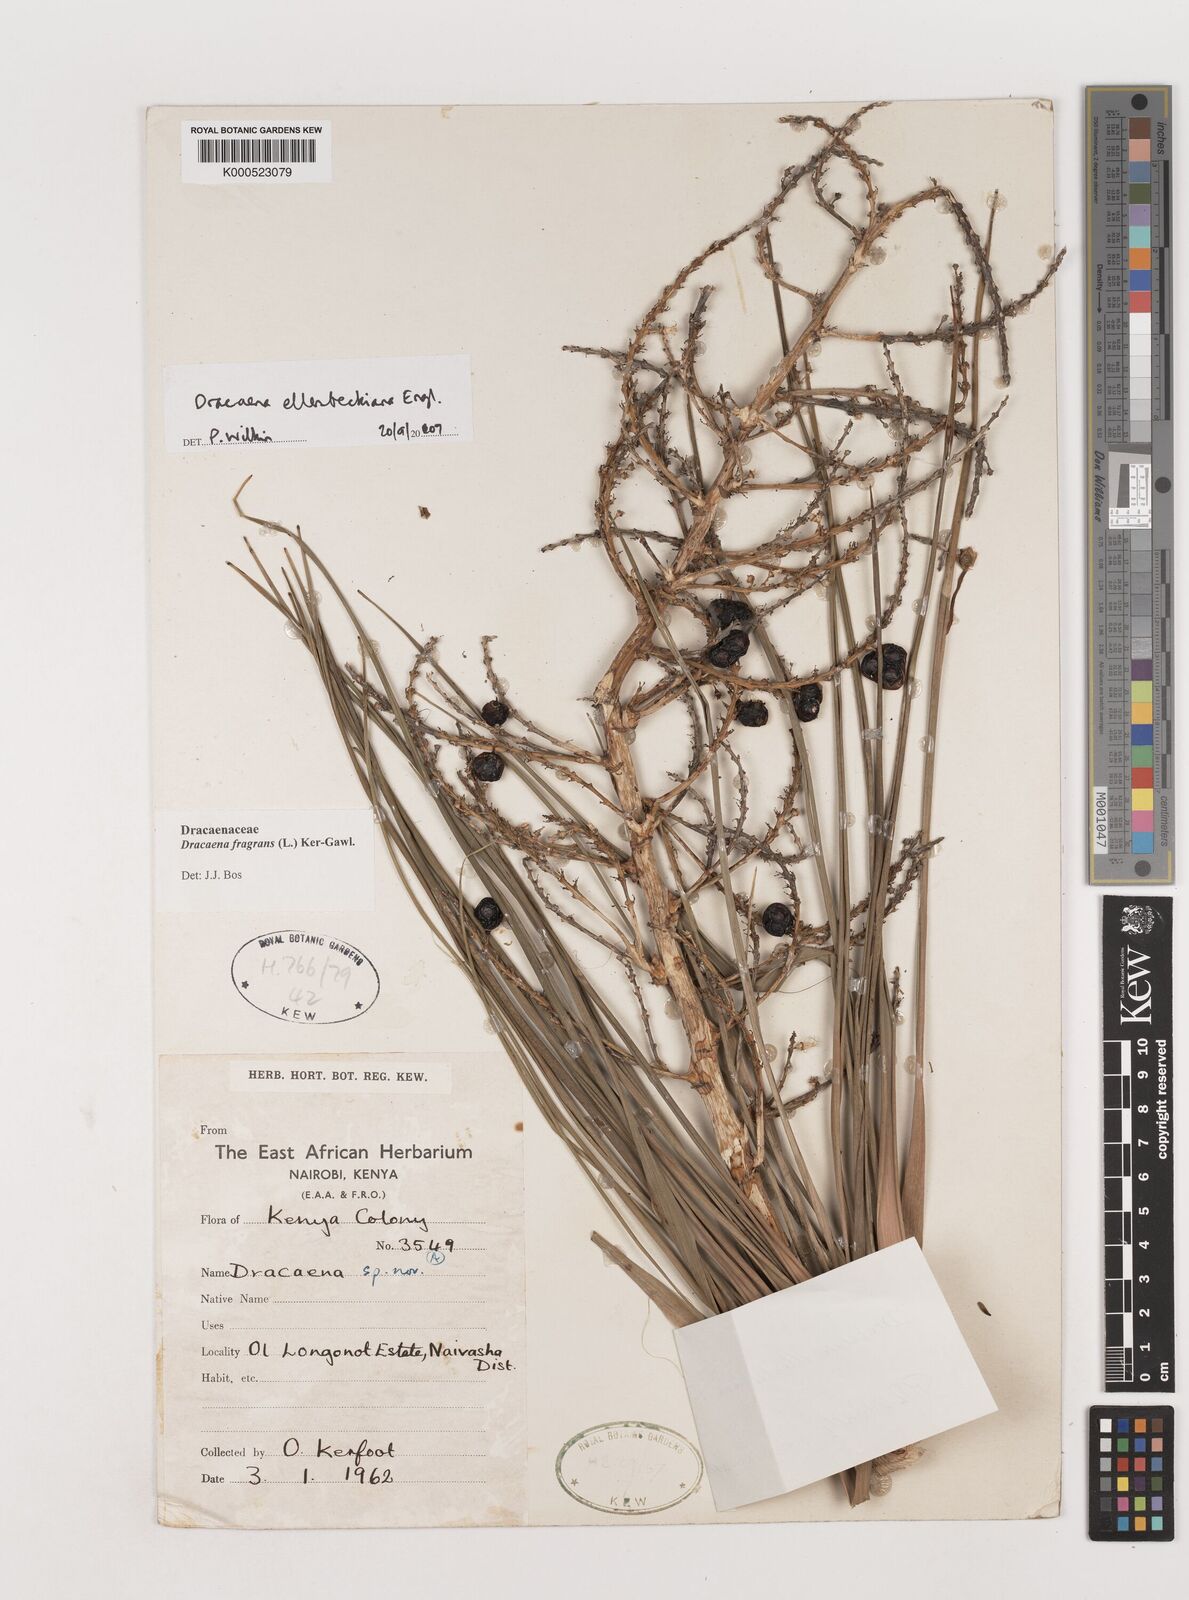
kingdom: Plantae
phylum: Tracheophyta
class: Liliopsida
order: Asparagales
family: Asparagaceae
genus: Dracaena
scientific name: Dracaena ellenbeckiana
